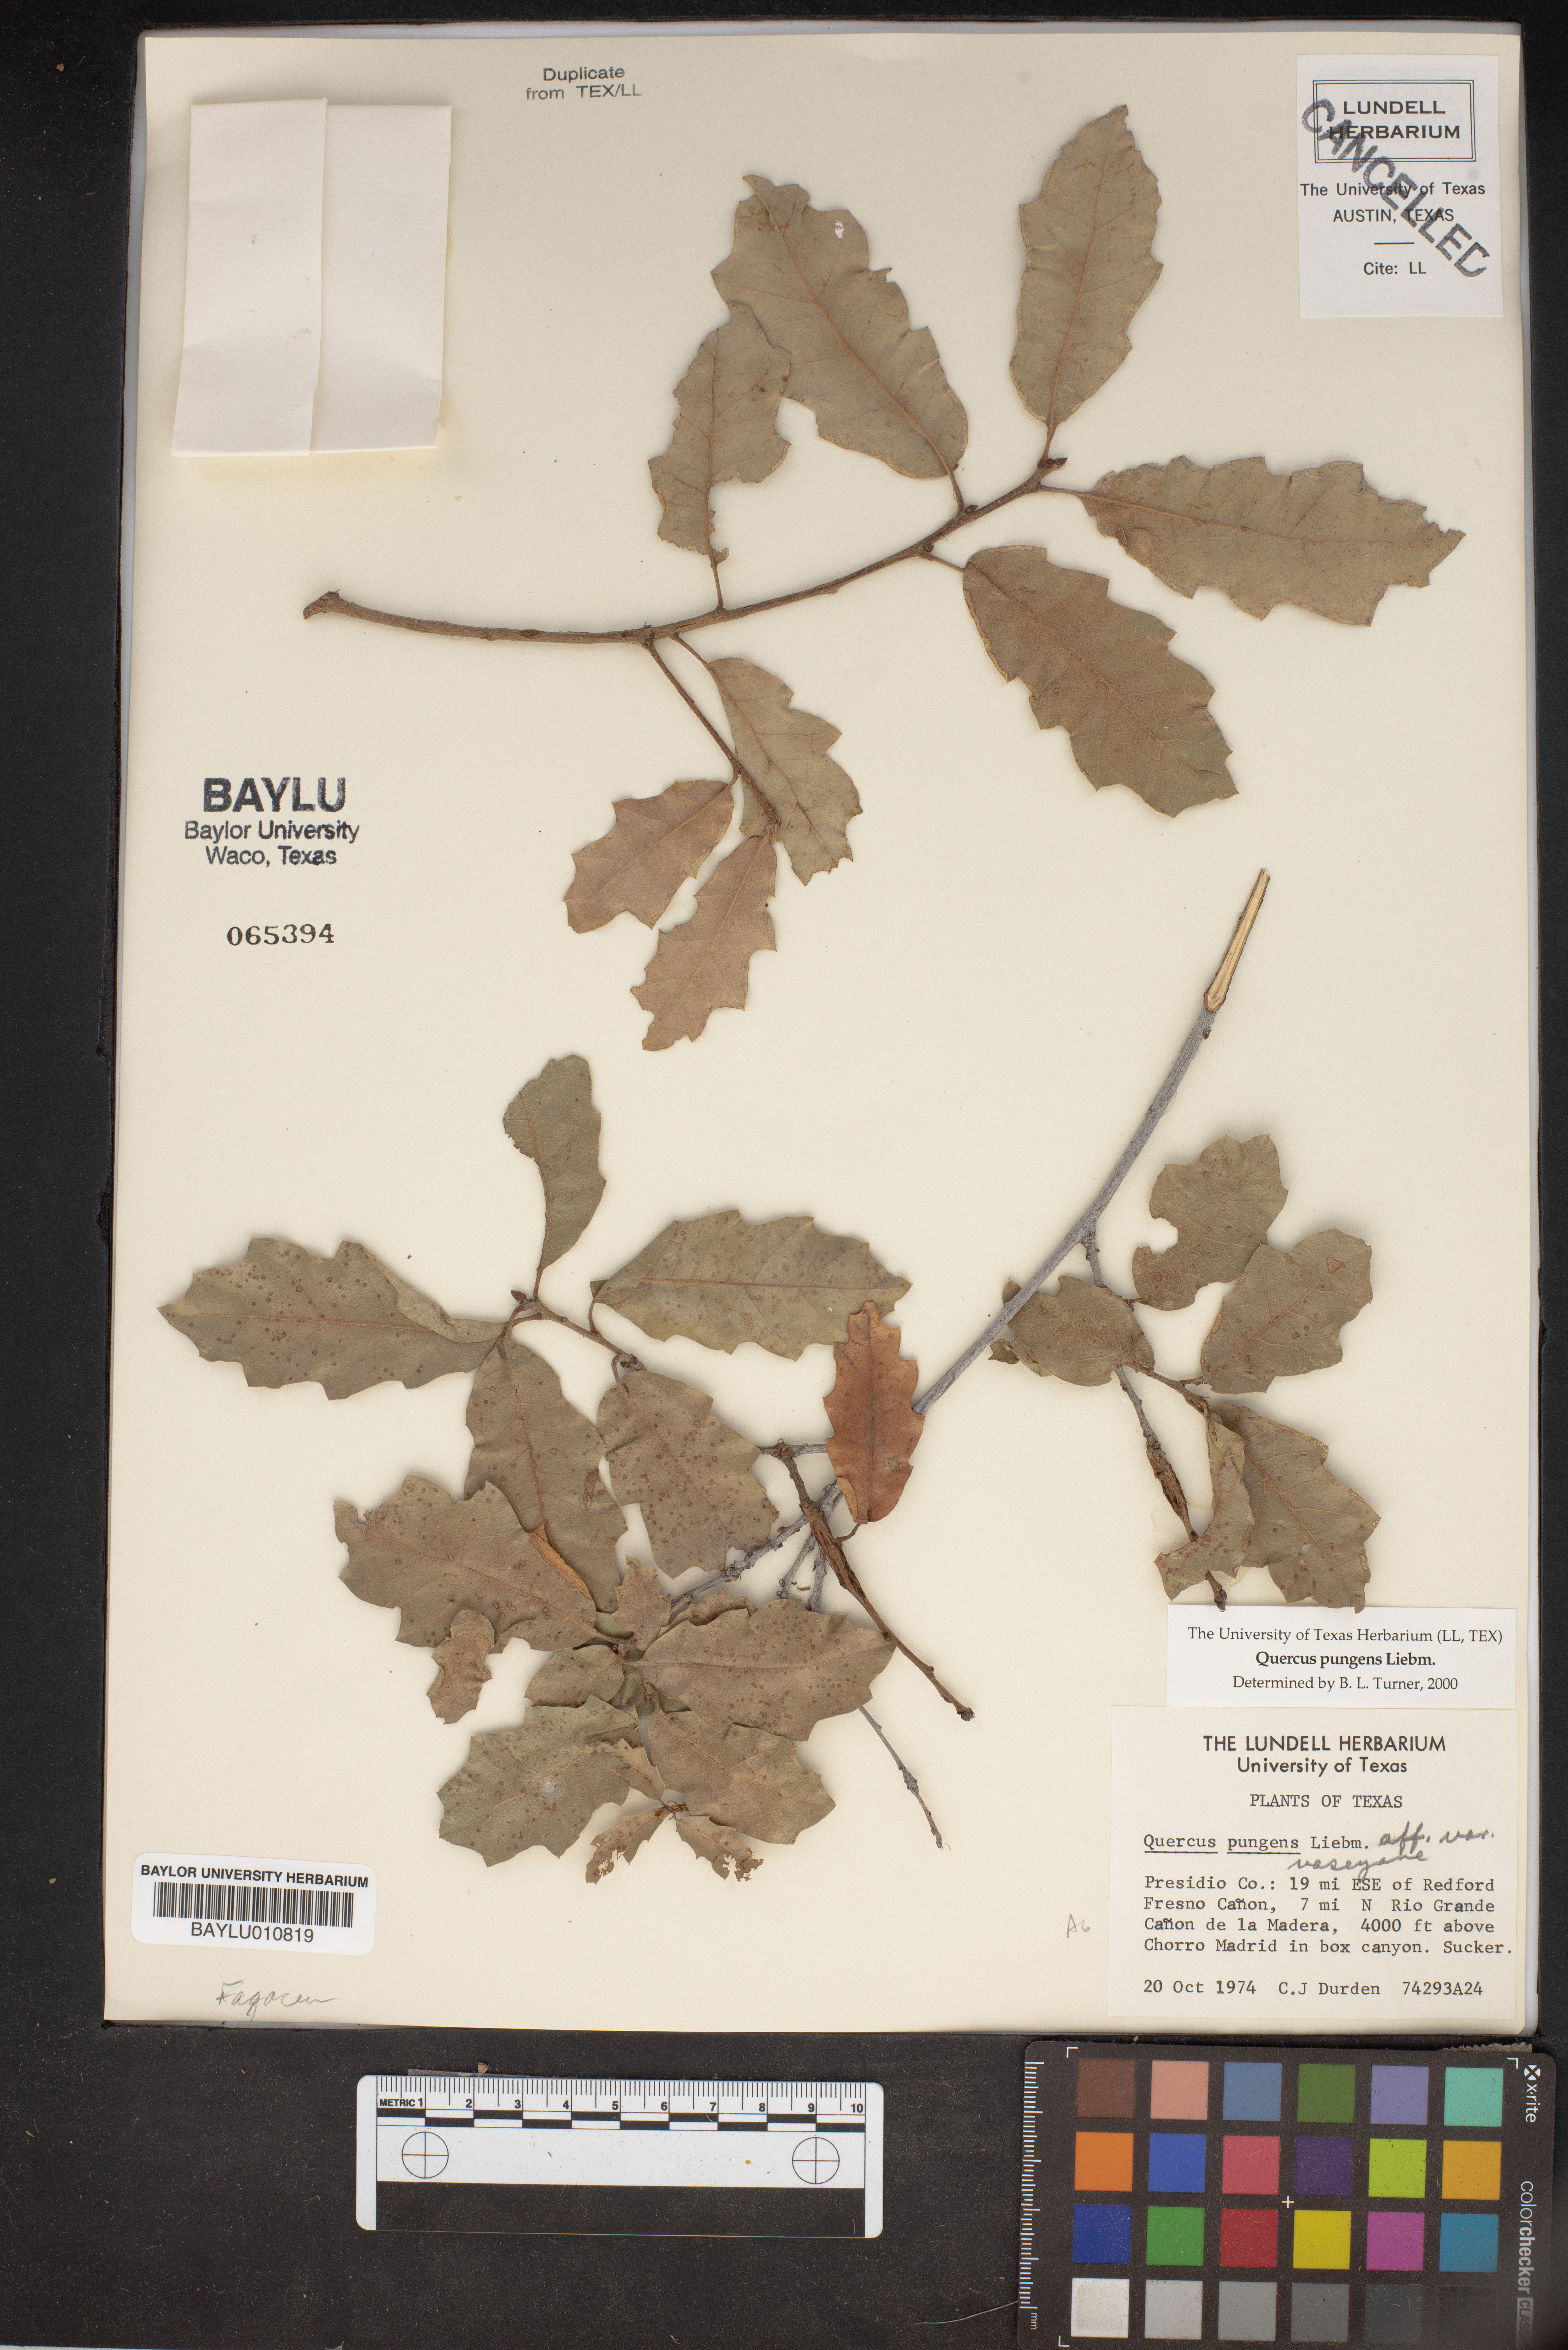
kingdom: Plantae
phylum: Tracheophyta
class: Magnoliopsida
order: Fagales
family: Fagaceae
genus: Quercus
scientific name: Quercus vaseyana
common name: Sandpaper oak
